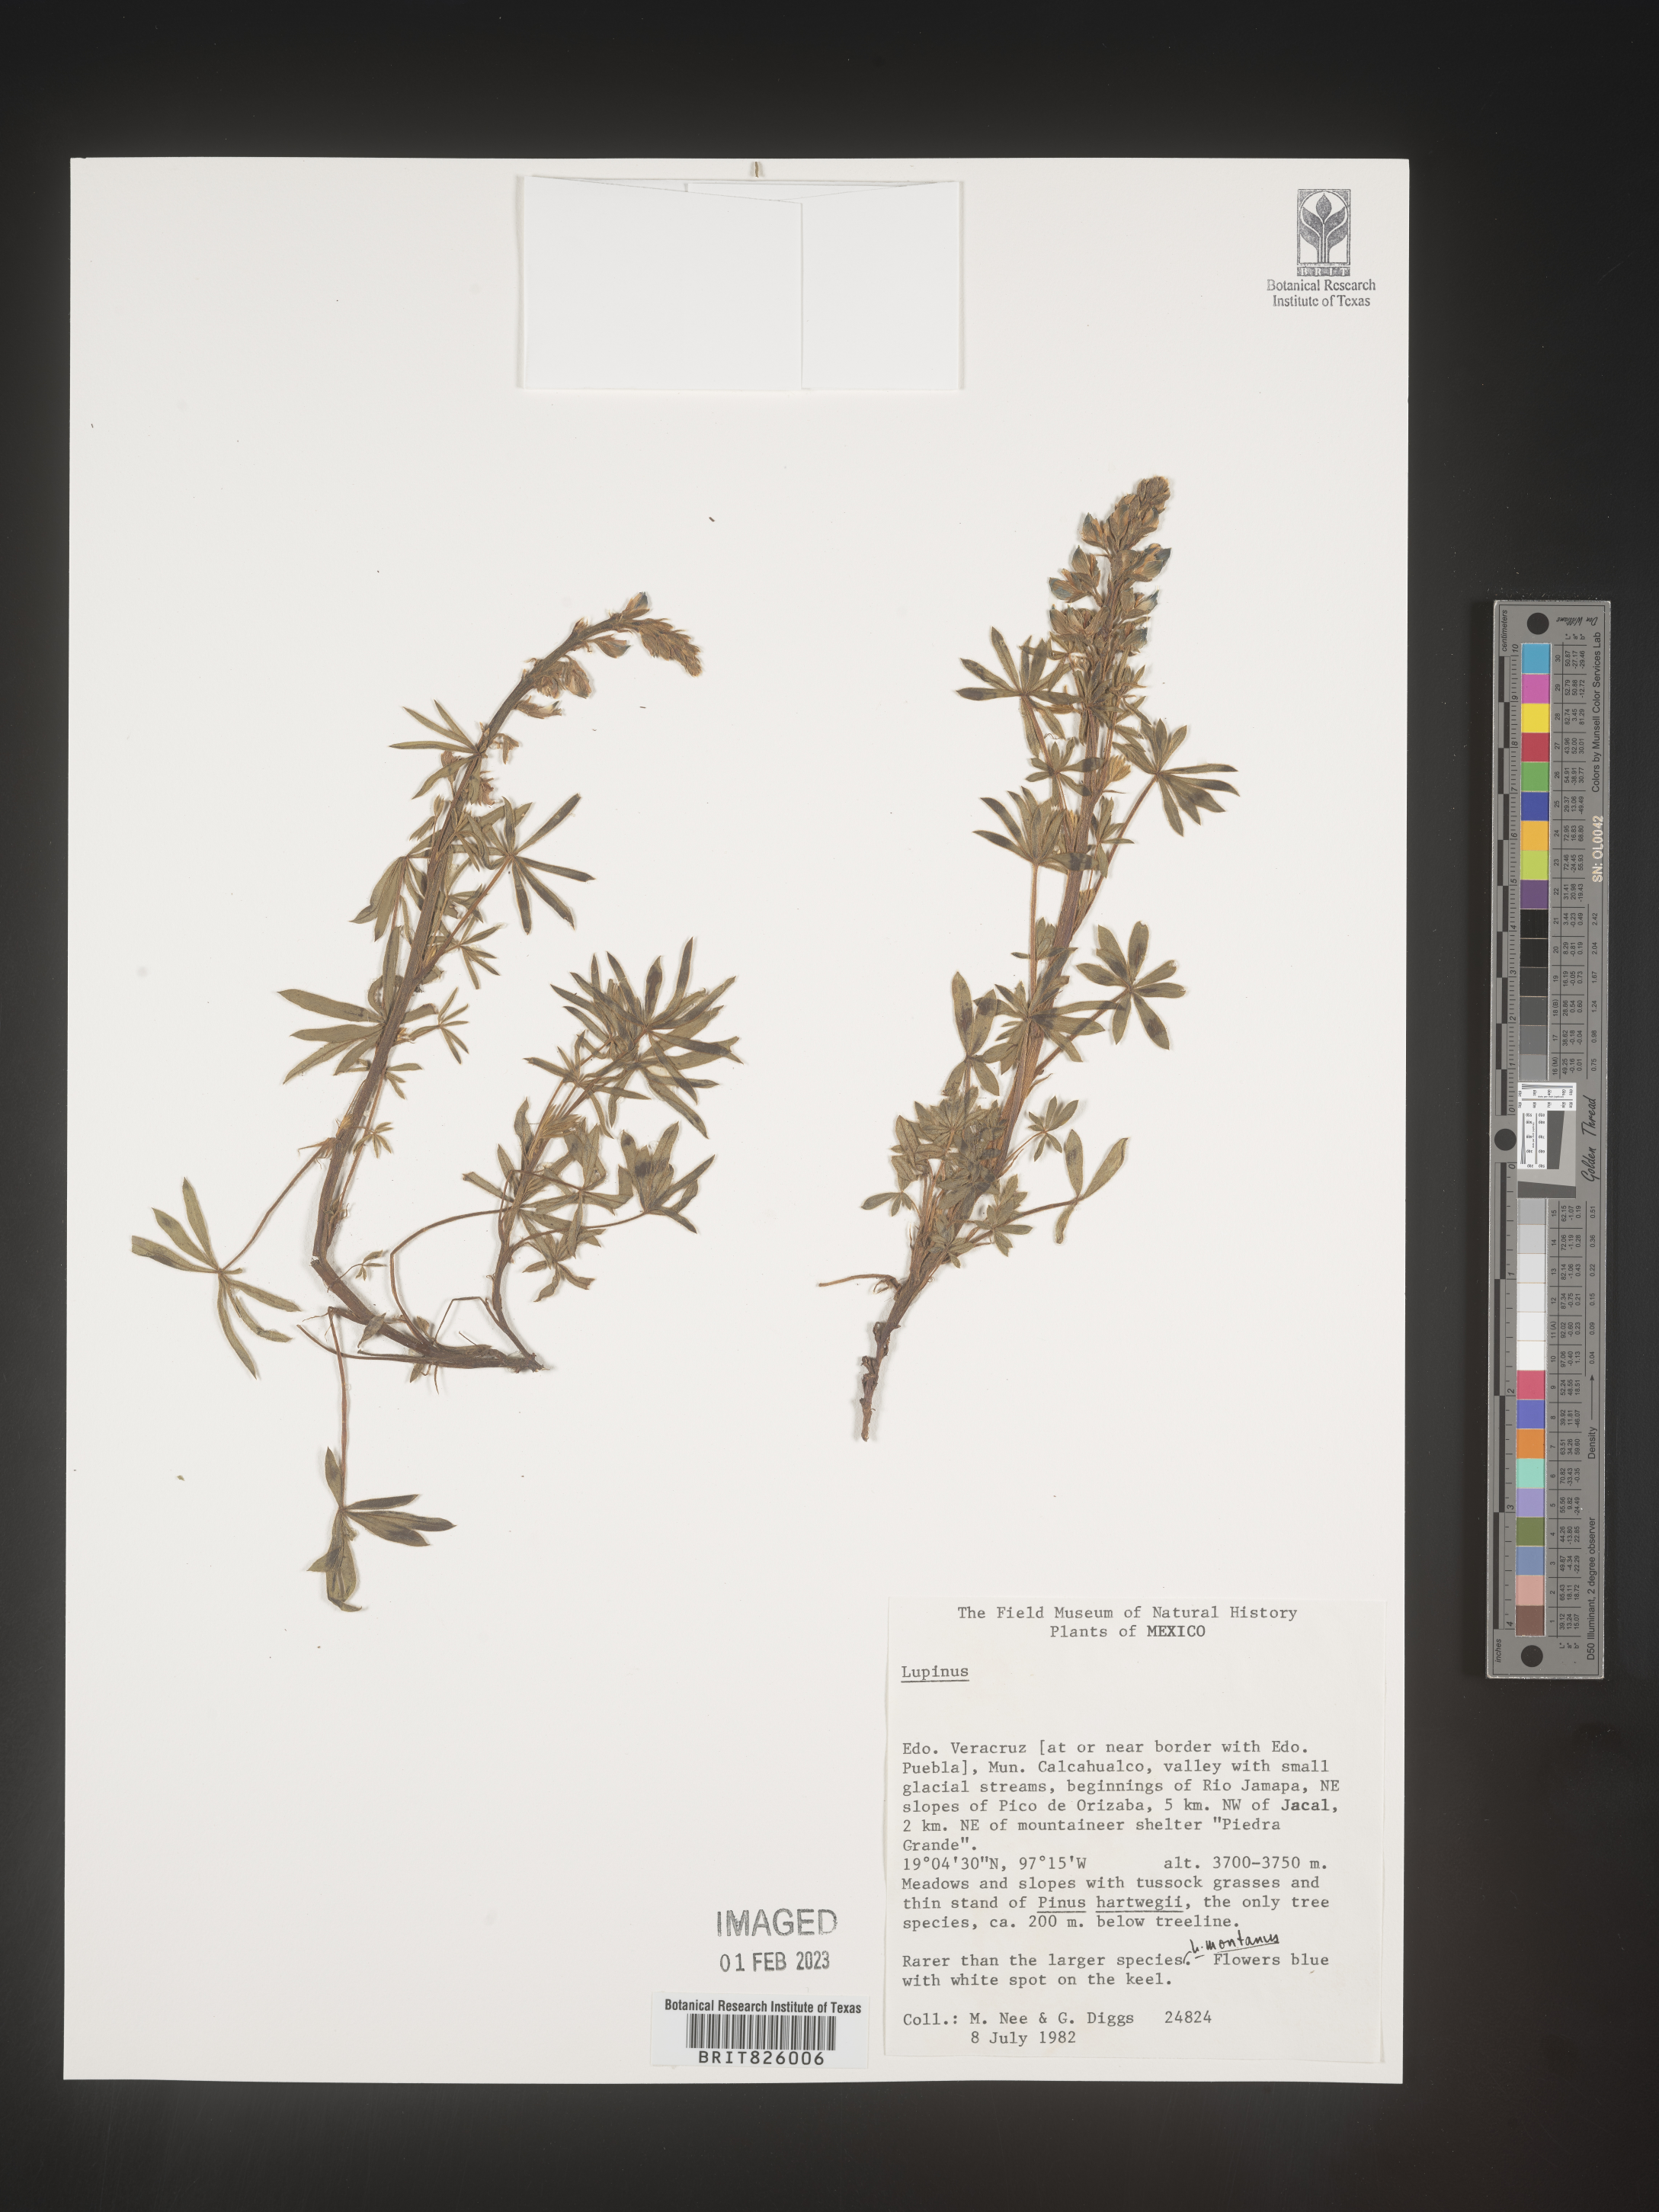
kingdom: Plantae
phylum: Tracheophyta
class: Magnoliopsida
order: Fabales
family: Fabaceae
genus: Lupinus
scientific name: Lupinus
